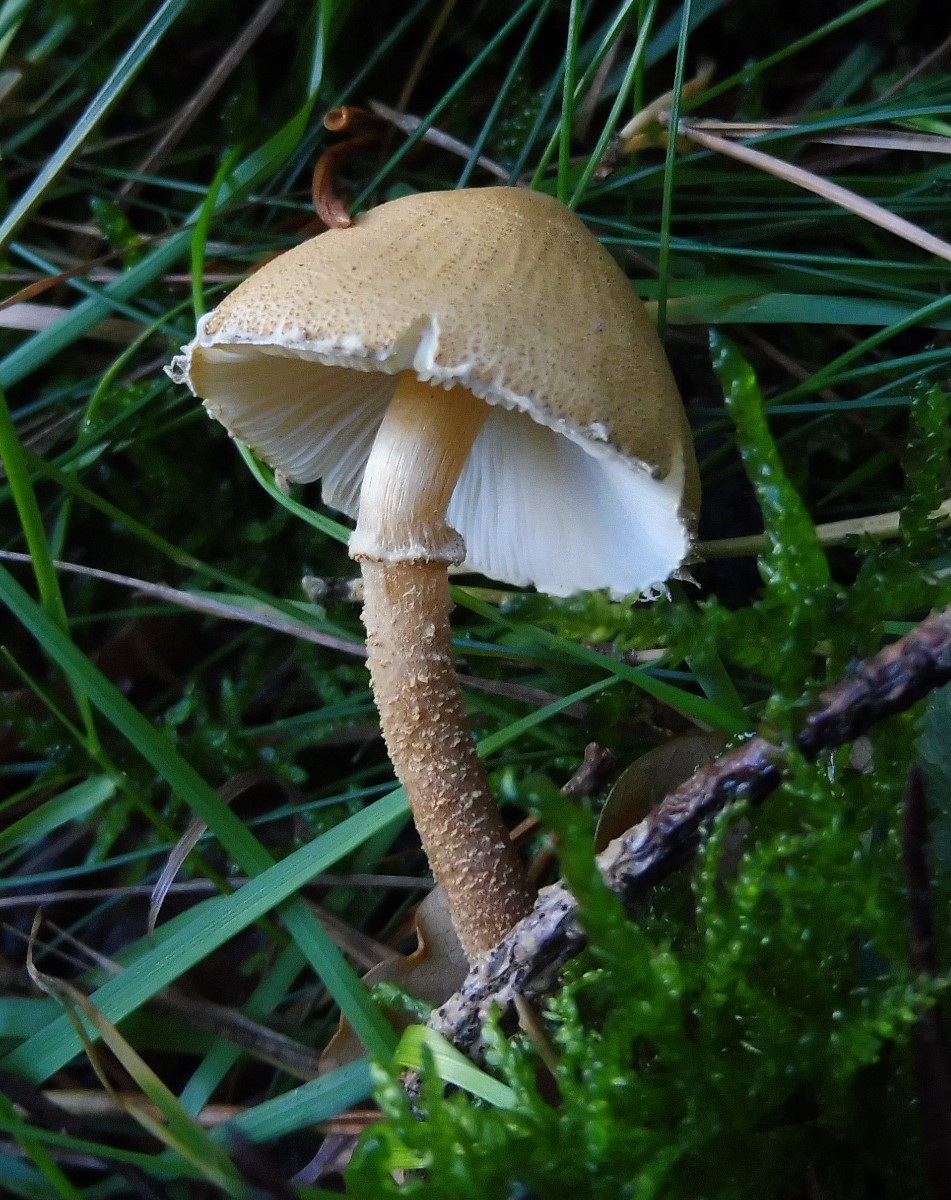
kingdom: Fungi
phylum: Basidiomycota
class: Agaricomycetes
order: Agaricales
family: Tricholomataceae
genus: Cystoderma
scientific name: Cystoderma amianthinum
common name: okkergul grynhat
